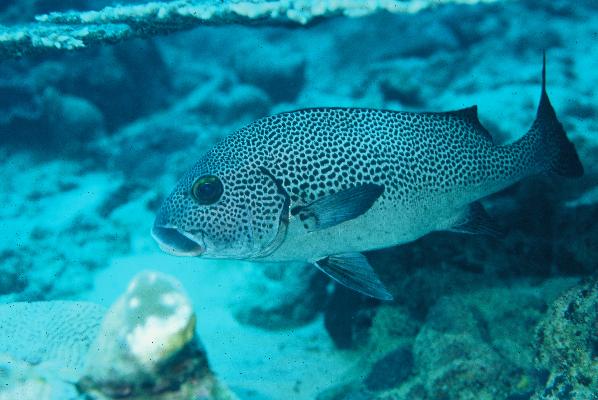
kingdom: Animalia
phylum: Chordata
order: Perciformes
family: Haemulidae
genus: Plectorhinchus
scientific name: Plectorhinchus picus
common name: Spotted sweetlips
